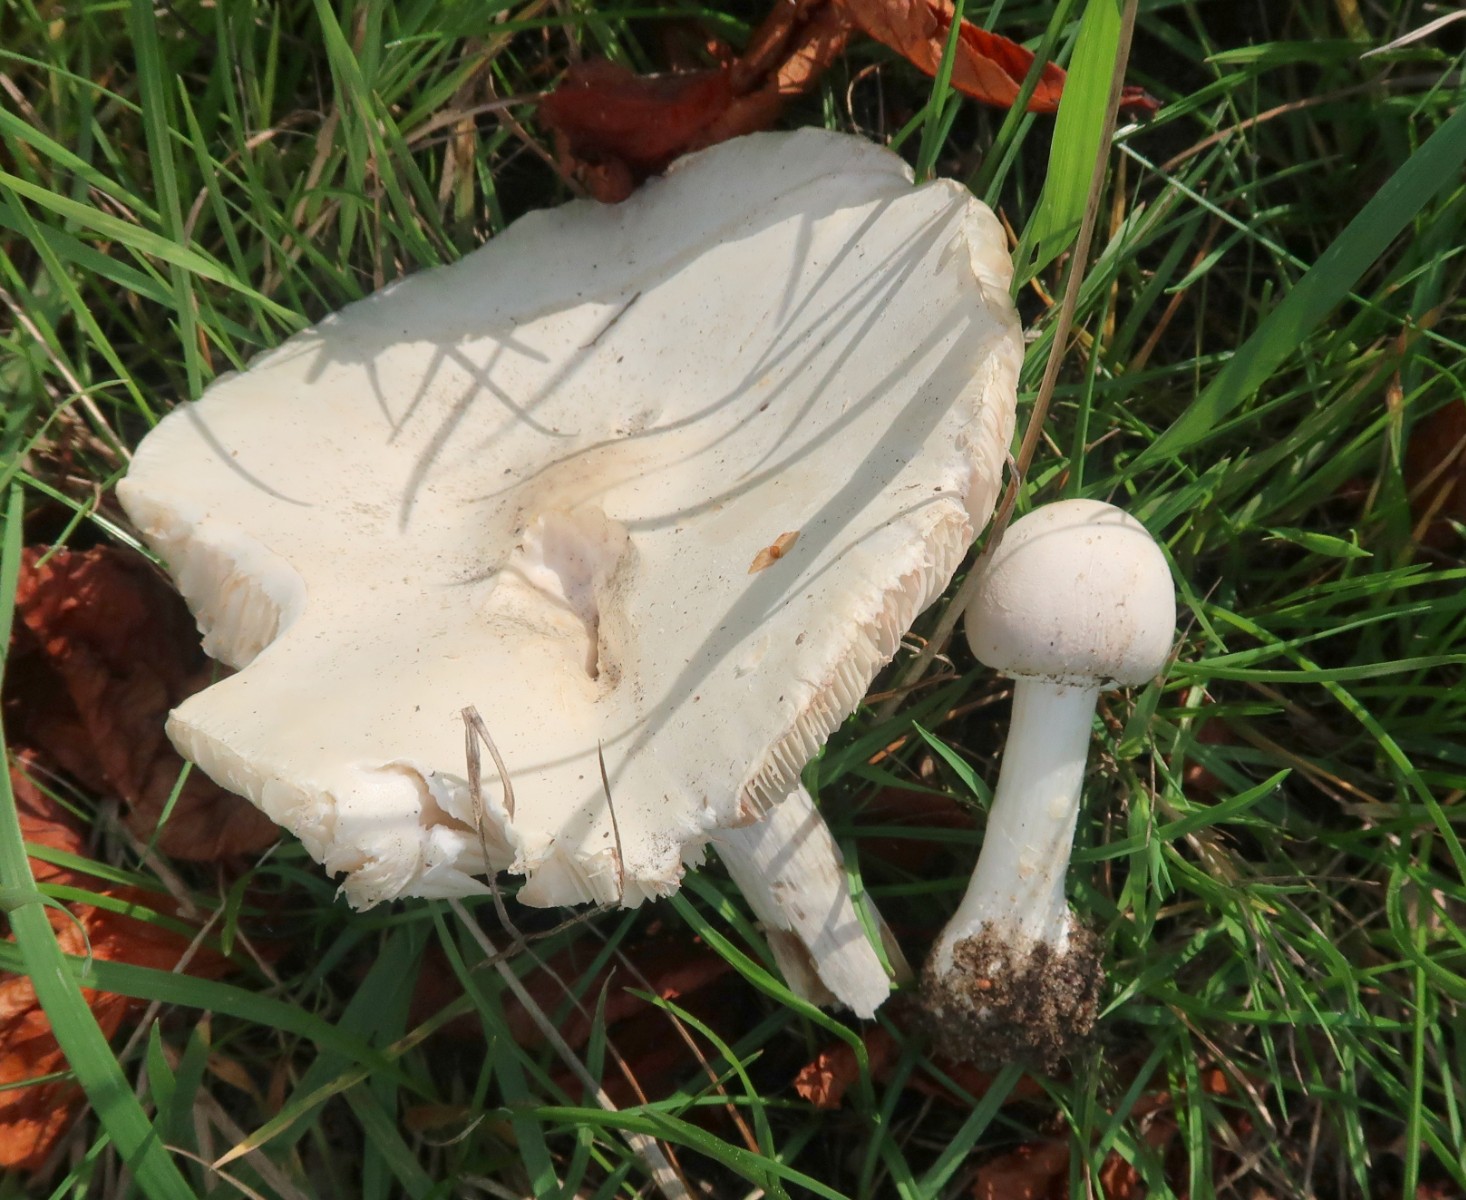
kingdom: Fungi
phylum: Basidiomycota
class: Agaricomycetes
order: Agaricales
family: Agaricaceae
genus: Leucoagaricus
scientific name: Leucoagaricus leucothites
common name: rosabladet silkehat
